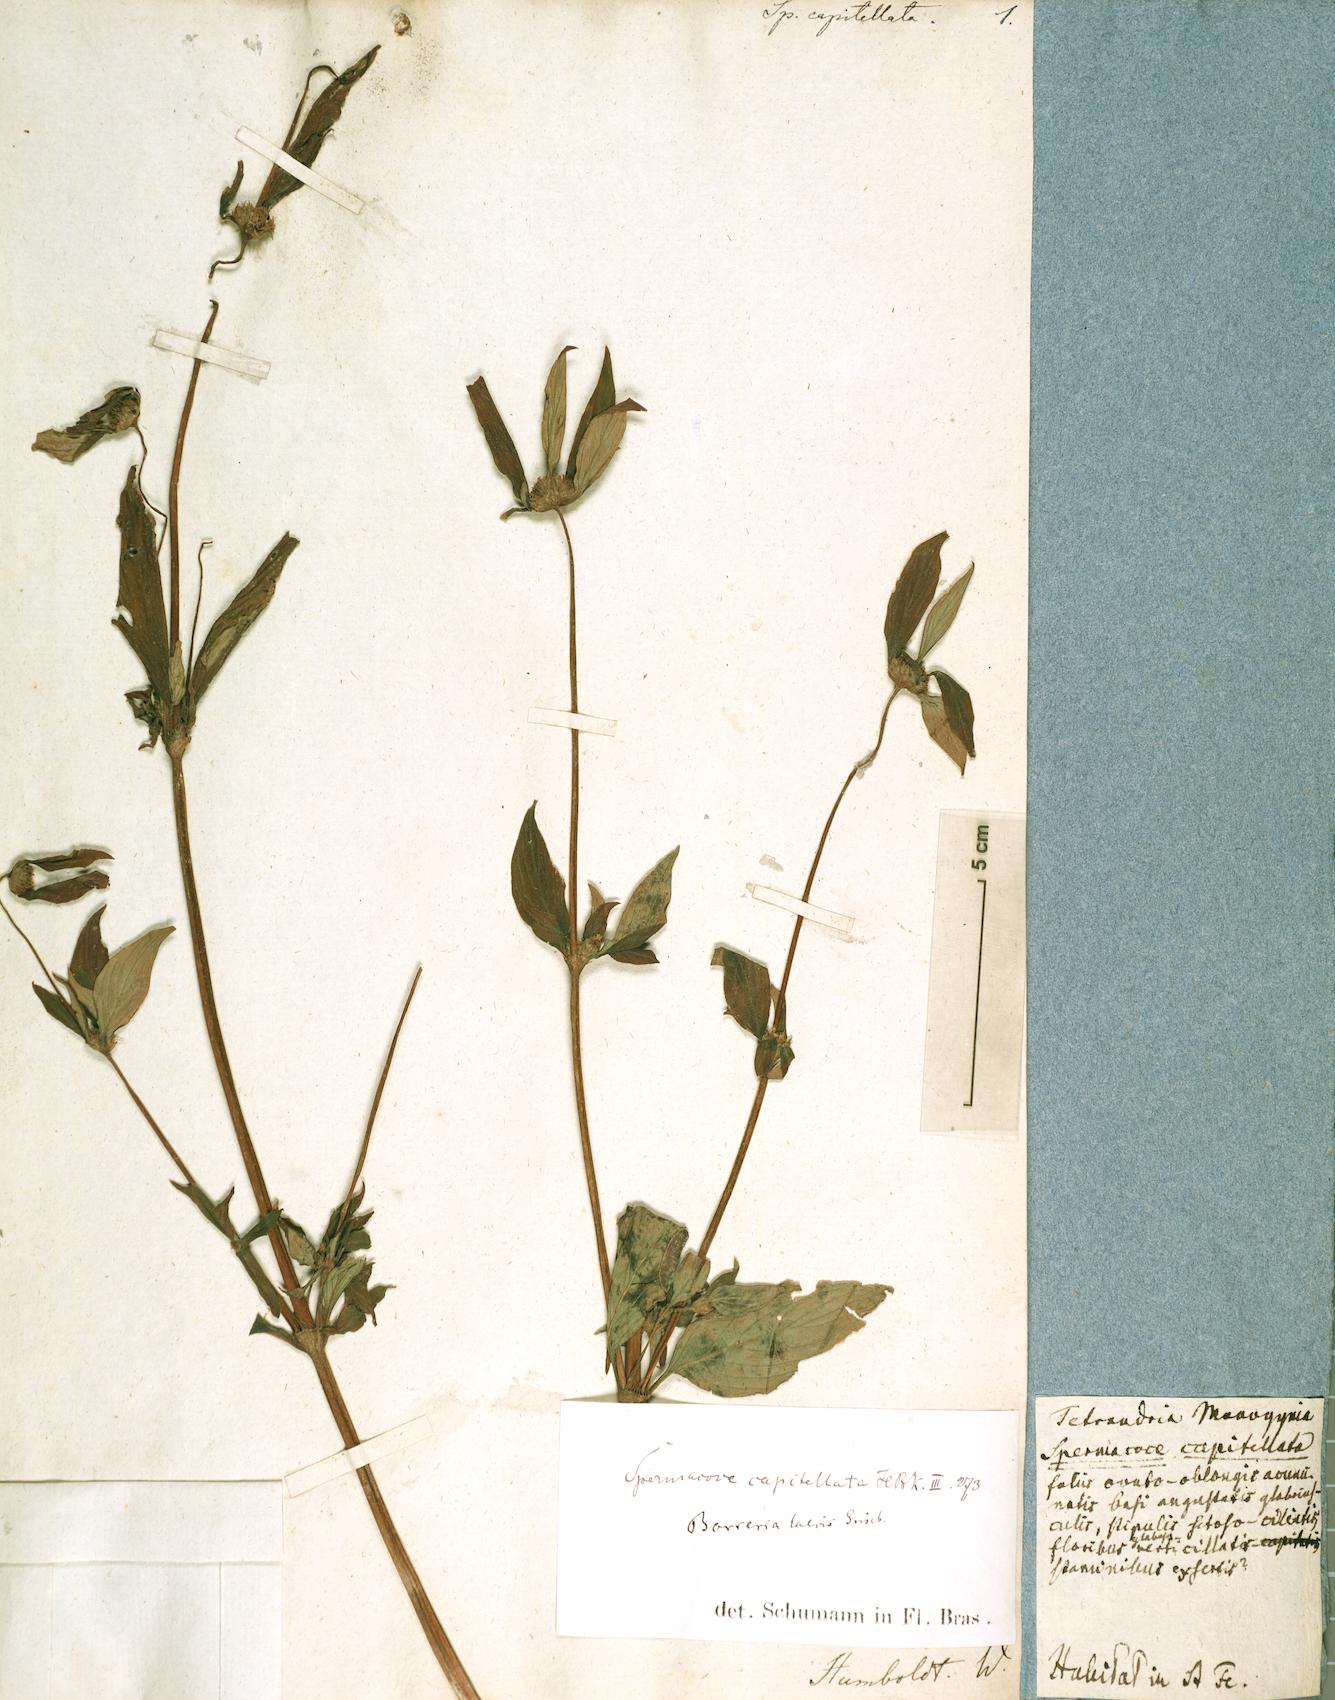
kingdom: Plantae
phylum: Tracheophyta
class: Magnoliopsida
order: Gentianales
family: Rubiaceae
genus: Spermacoce
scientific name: Spermacoce remota
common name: Woodland false buttonweed
